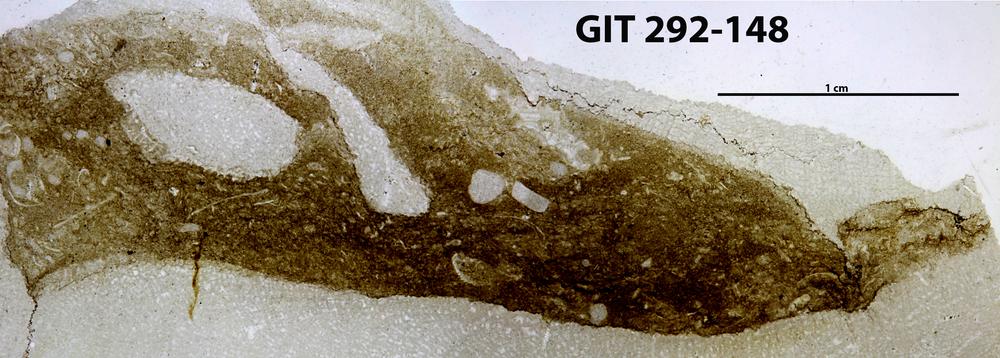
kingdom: Animalia
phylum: Porifera
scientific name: Porifera
